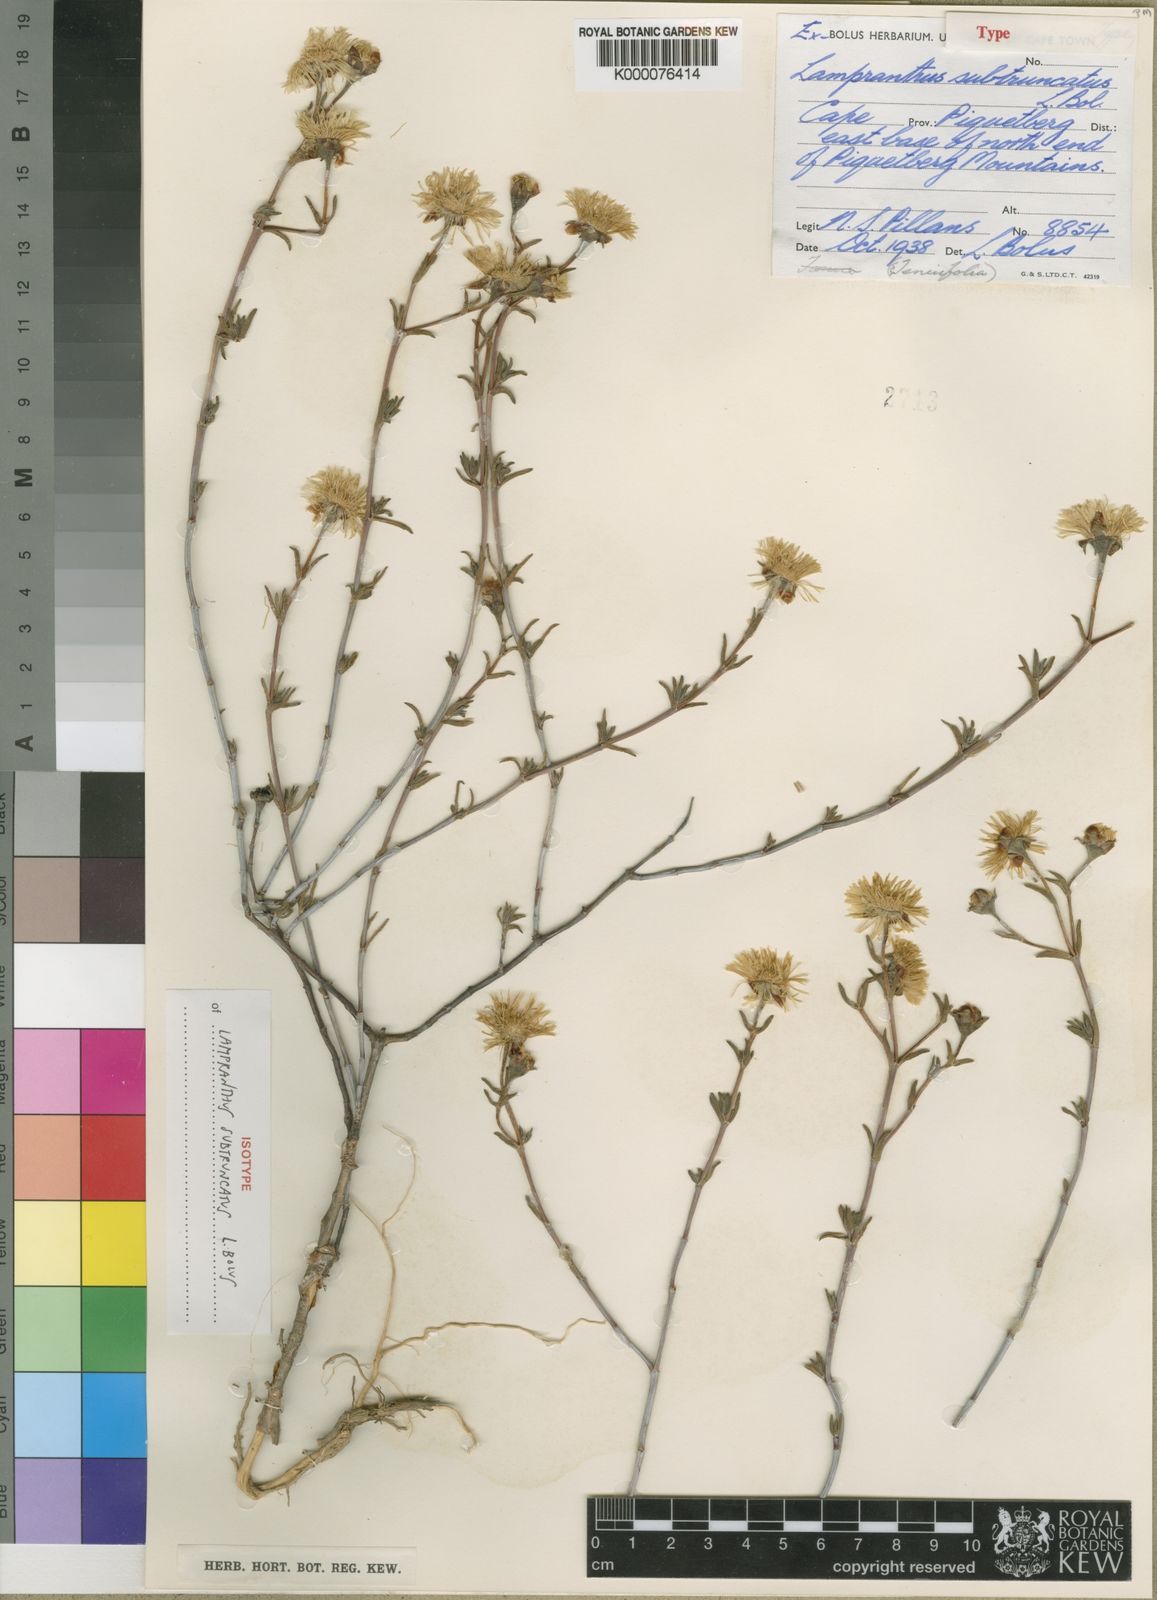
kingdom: Plantae
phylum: Tracheophyta
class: Magnoliopsida
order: Caryophyllales
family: Aizoaceae
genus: Lampranthus
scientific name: Lampranthus subtruncatus
